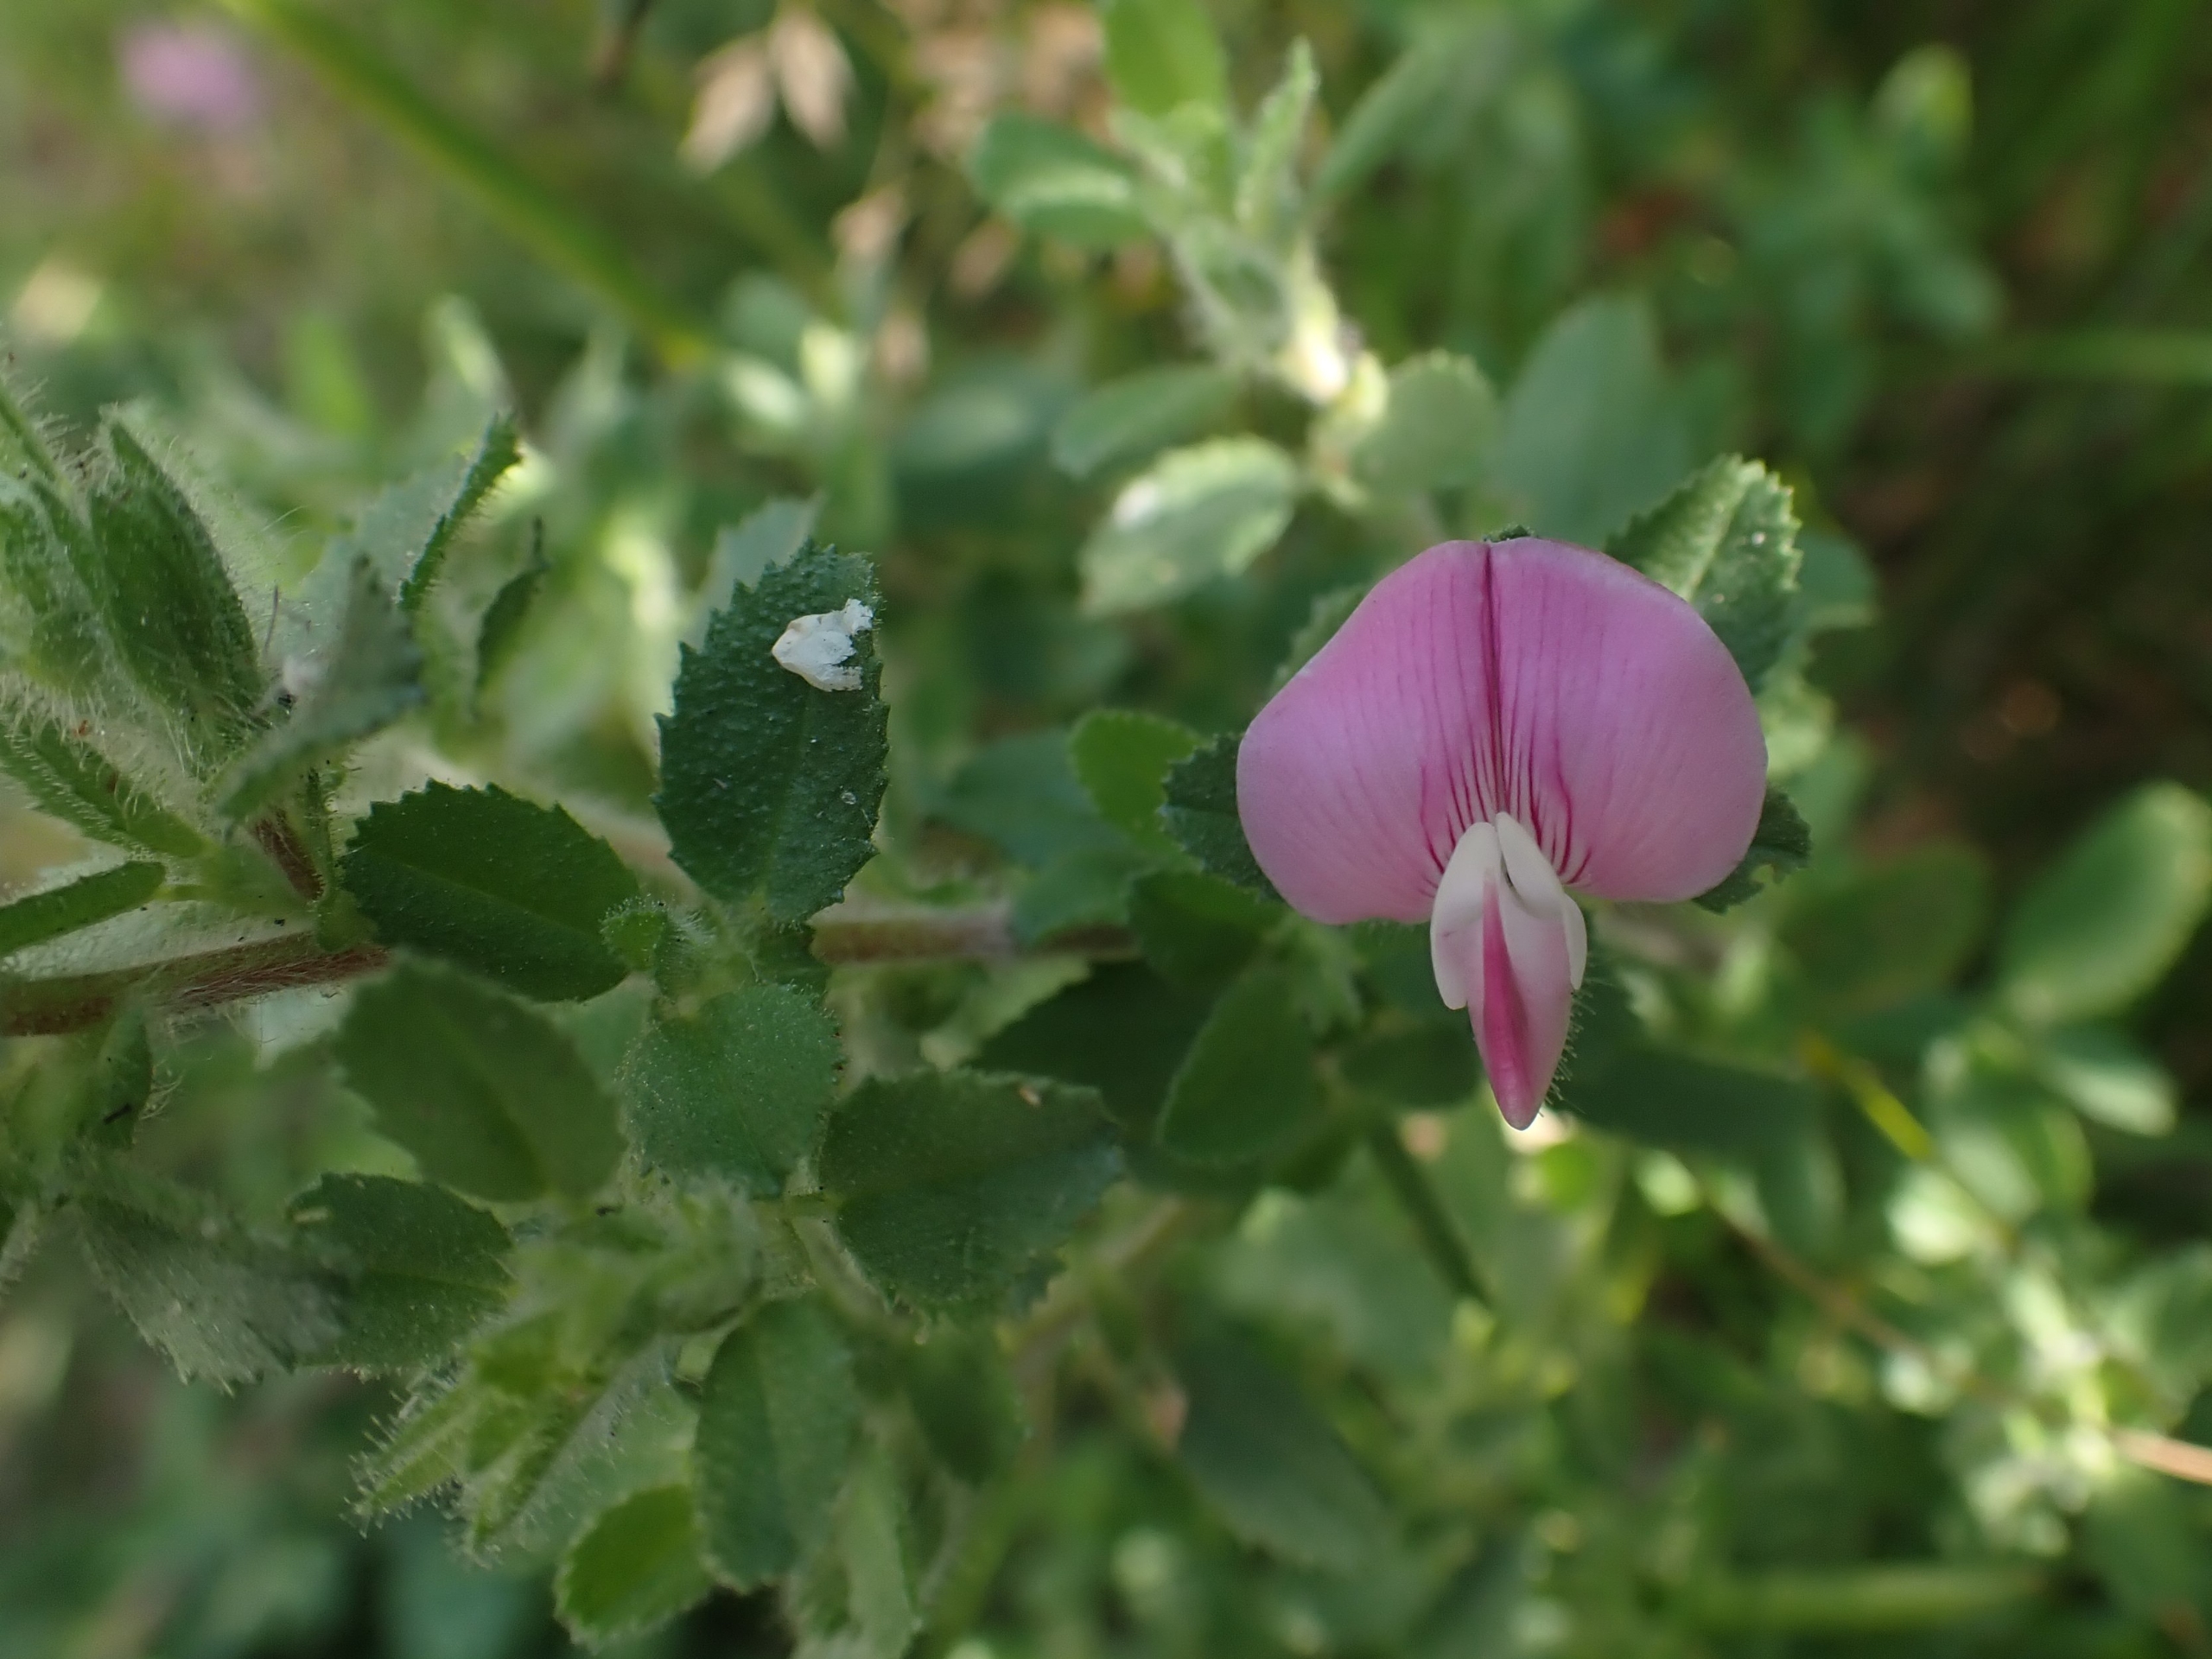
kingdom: Plantae
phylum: Tracheophyta
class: Magnoliopsida
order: Fabales
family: Fabaceae
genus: Ononis
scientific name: Ononis spinosa
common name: Mark-krageklo
